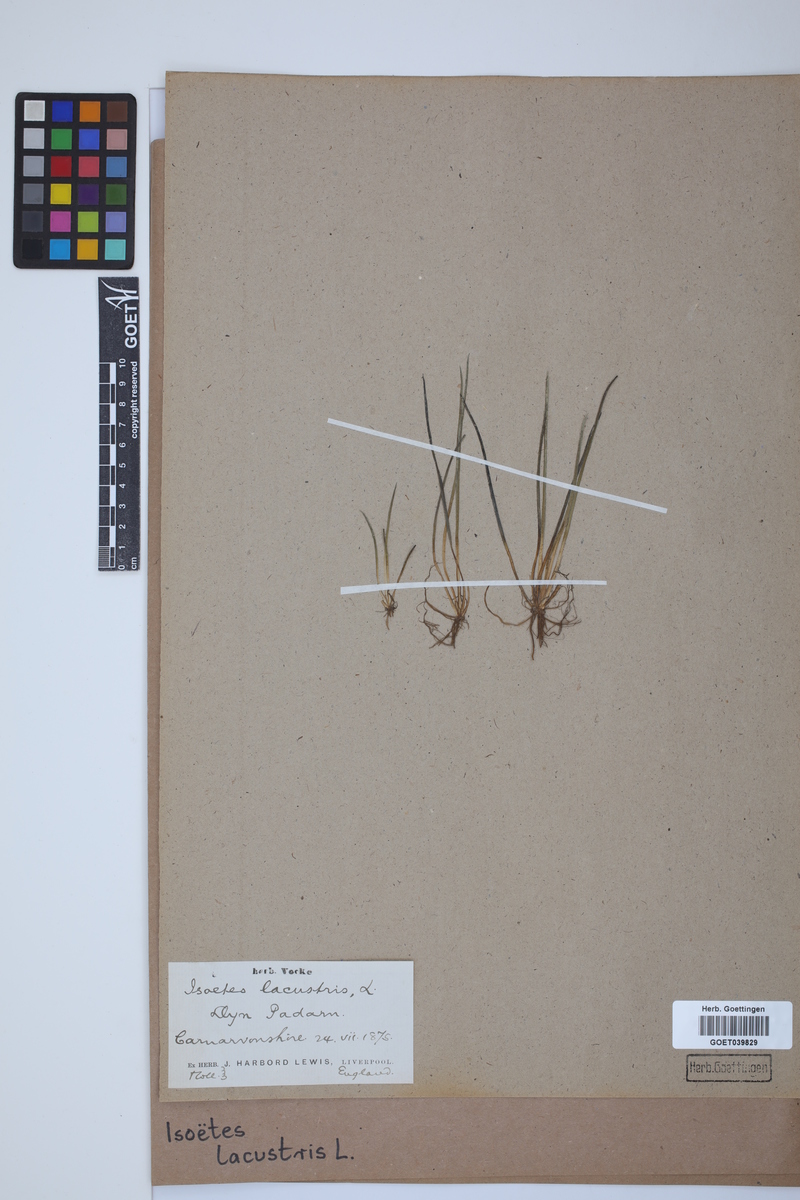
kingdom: Plantae
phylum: Tracheophyta
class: Lycopodiopsida
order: Isoetales
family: Isoetaceae
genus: Isoetes
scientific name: Isoetes lacustris
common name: Common quillwort
